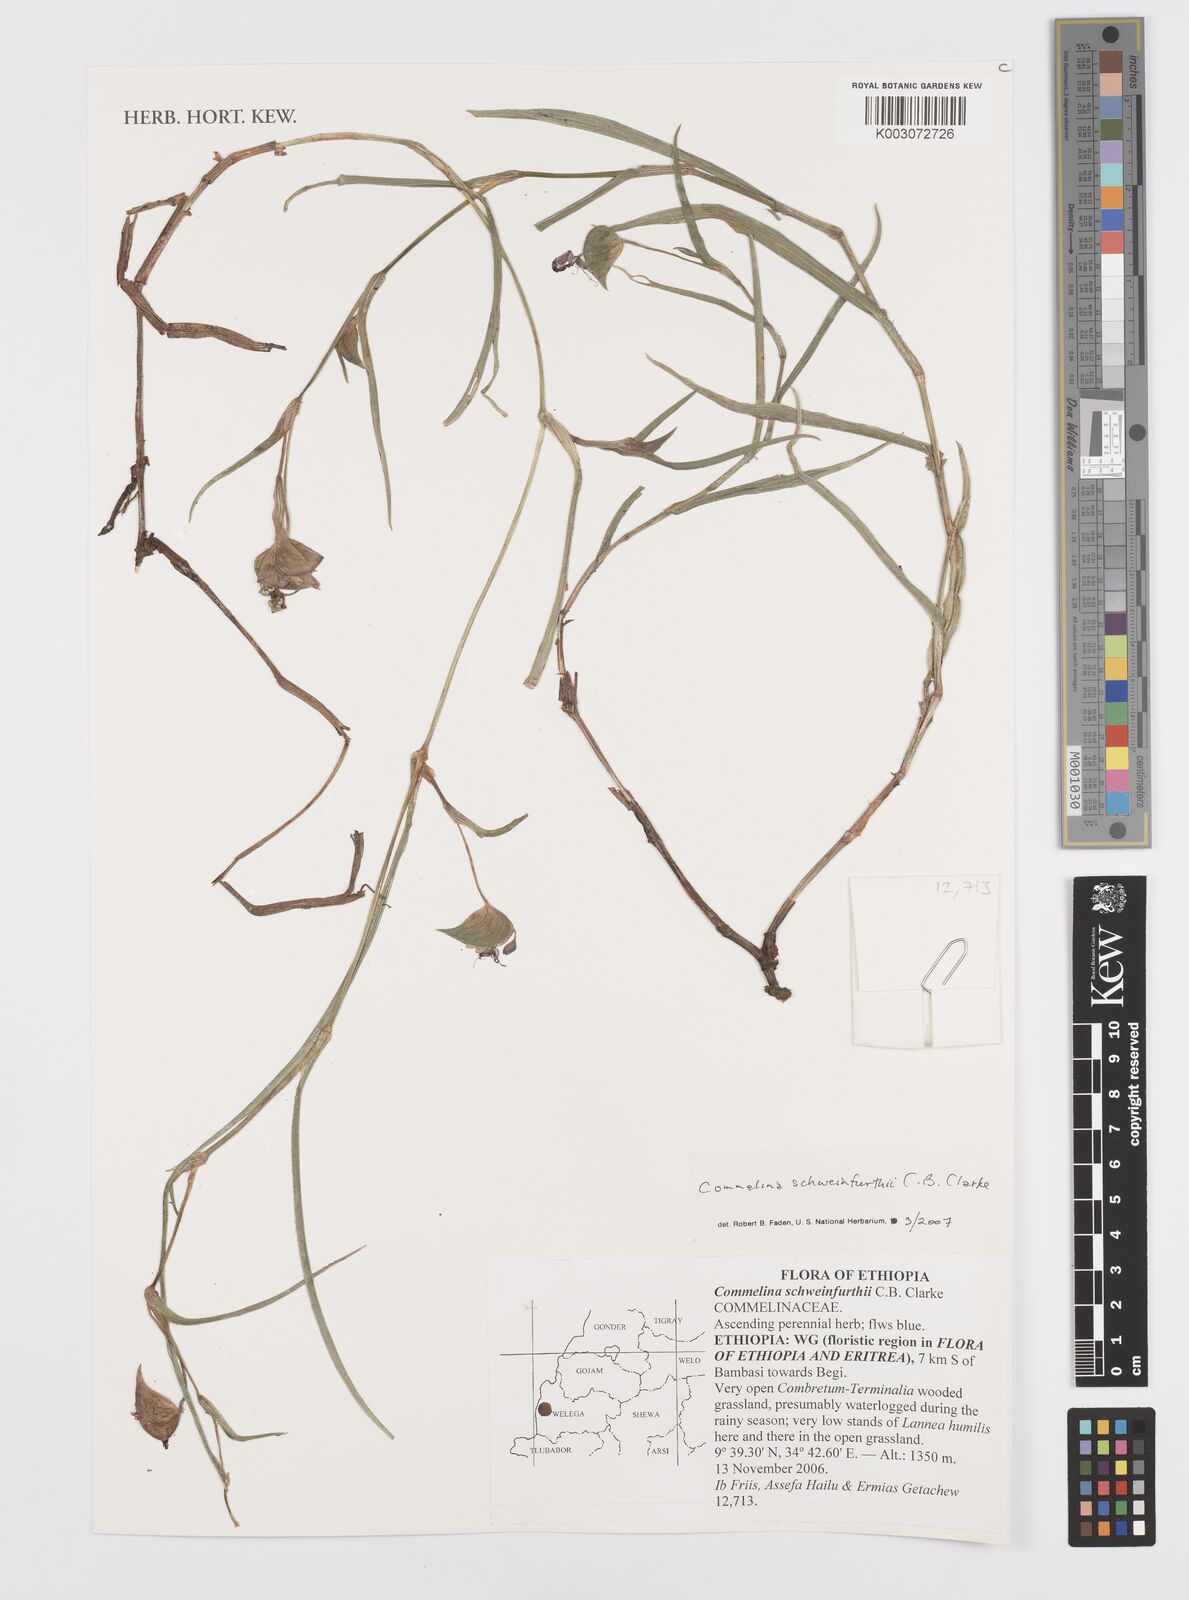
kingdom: Plantae
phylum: Tracheophyta
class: Liliopsida
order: Commelinales
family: Commelinaceae
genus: Commelina
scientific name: Commelina schweinfurthii
